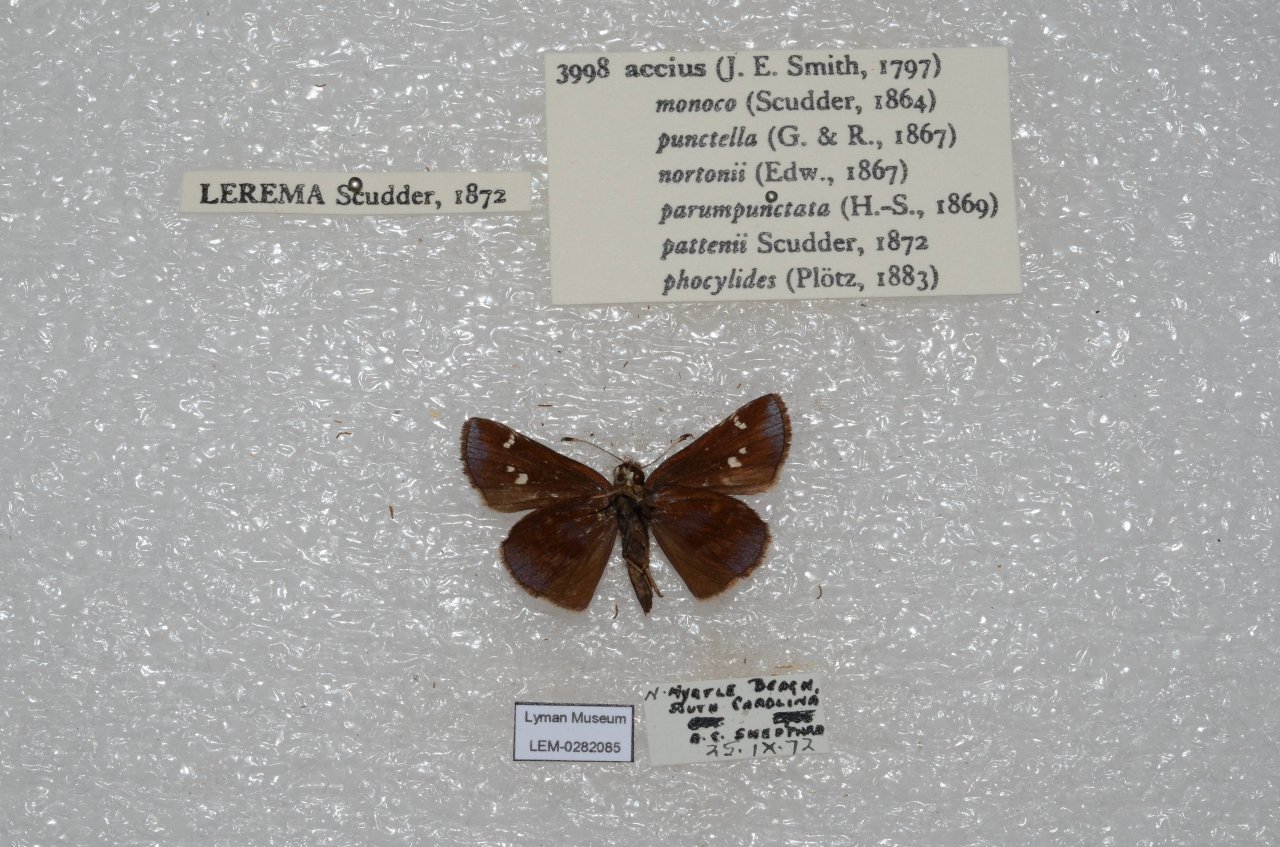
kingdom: Animalia
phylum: Arthropoda
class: Insecta
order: Lepidoptera
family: Hesperiidae
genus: Lerema
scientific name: Lerema accius
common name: Clouded Skipper
